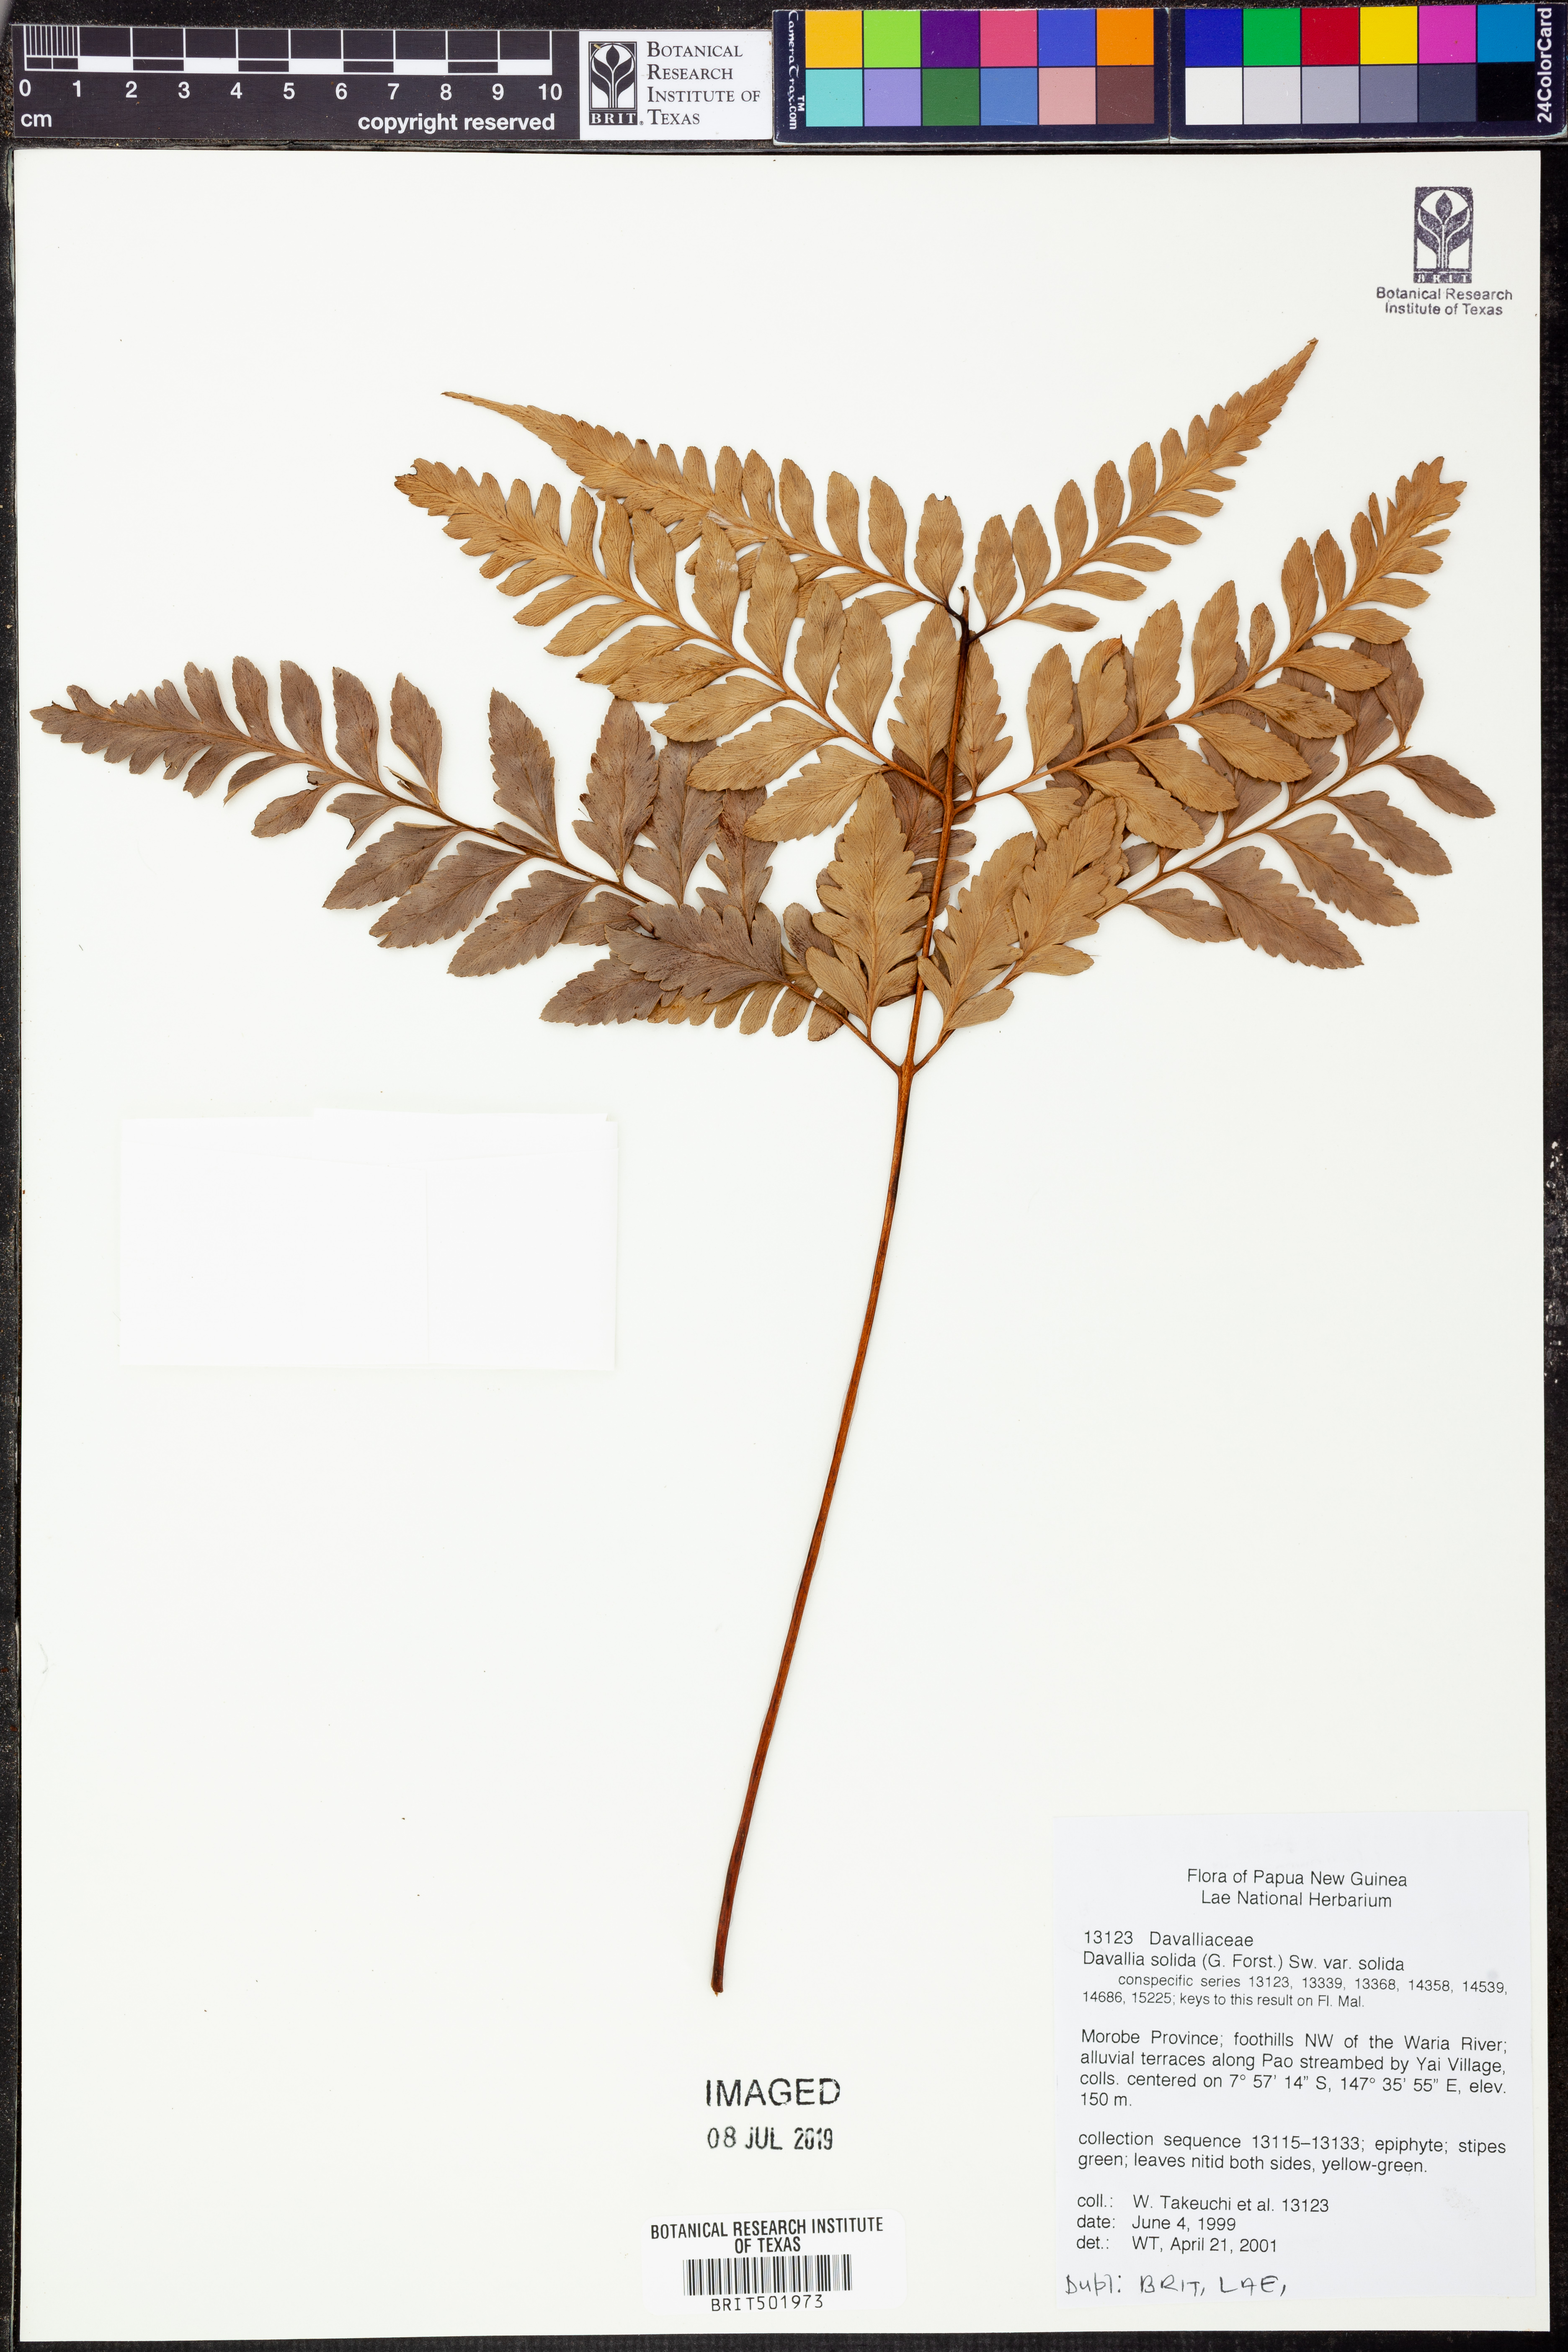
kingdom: Plantae
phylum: Tracheophyta
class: Polypodiopsida
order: Polypodiales
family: Davalliaceae
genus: Davallia
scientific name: Davallia solida
